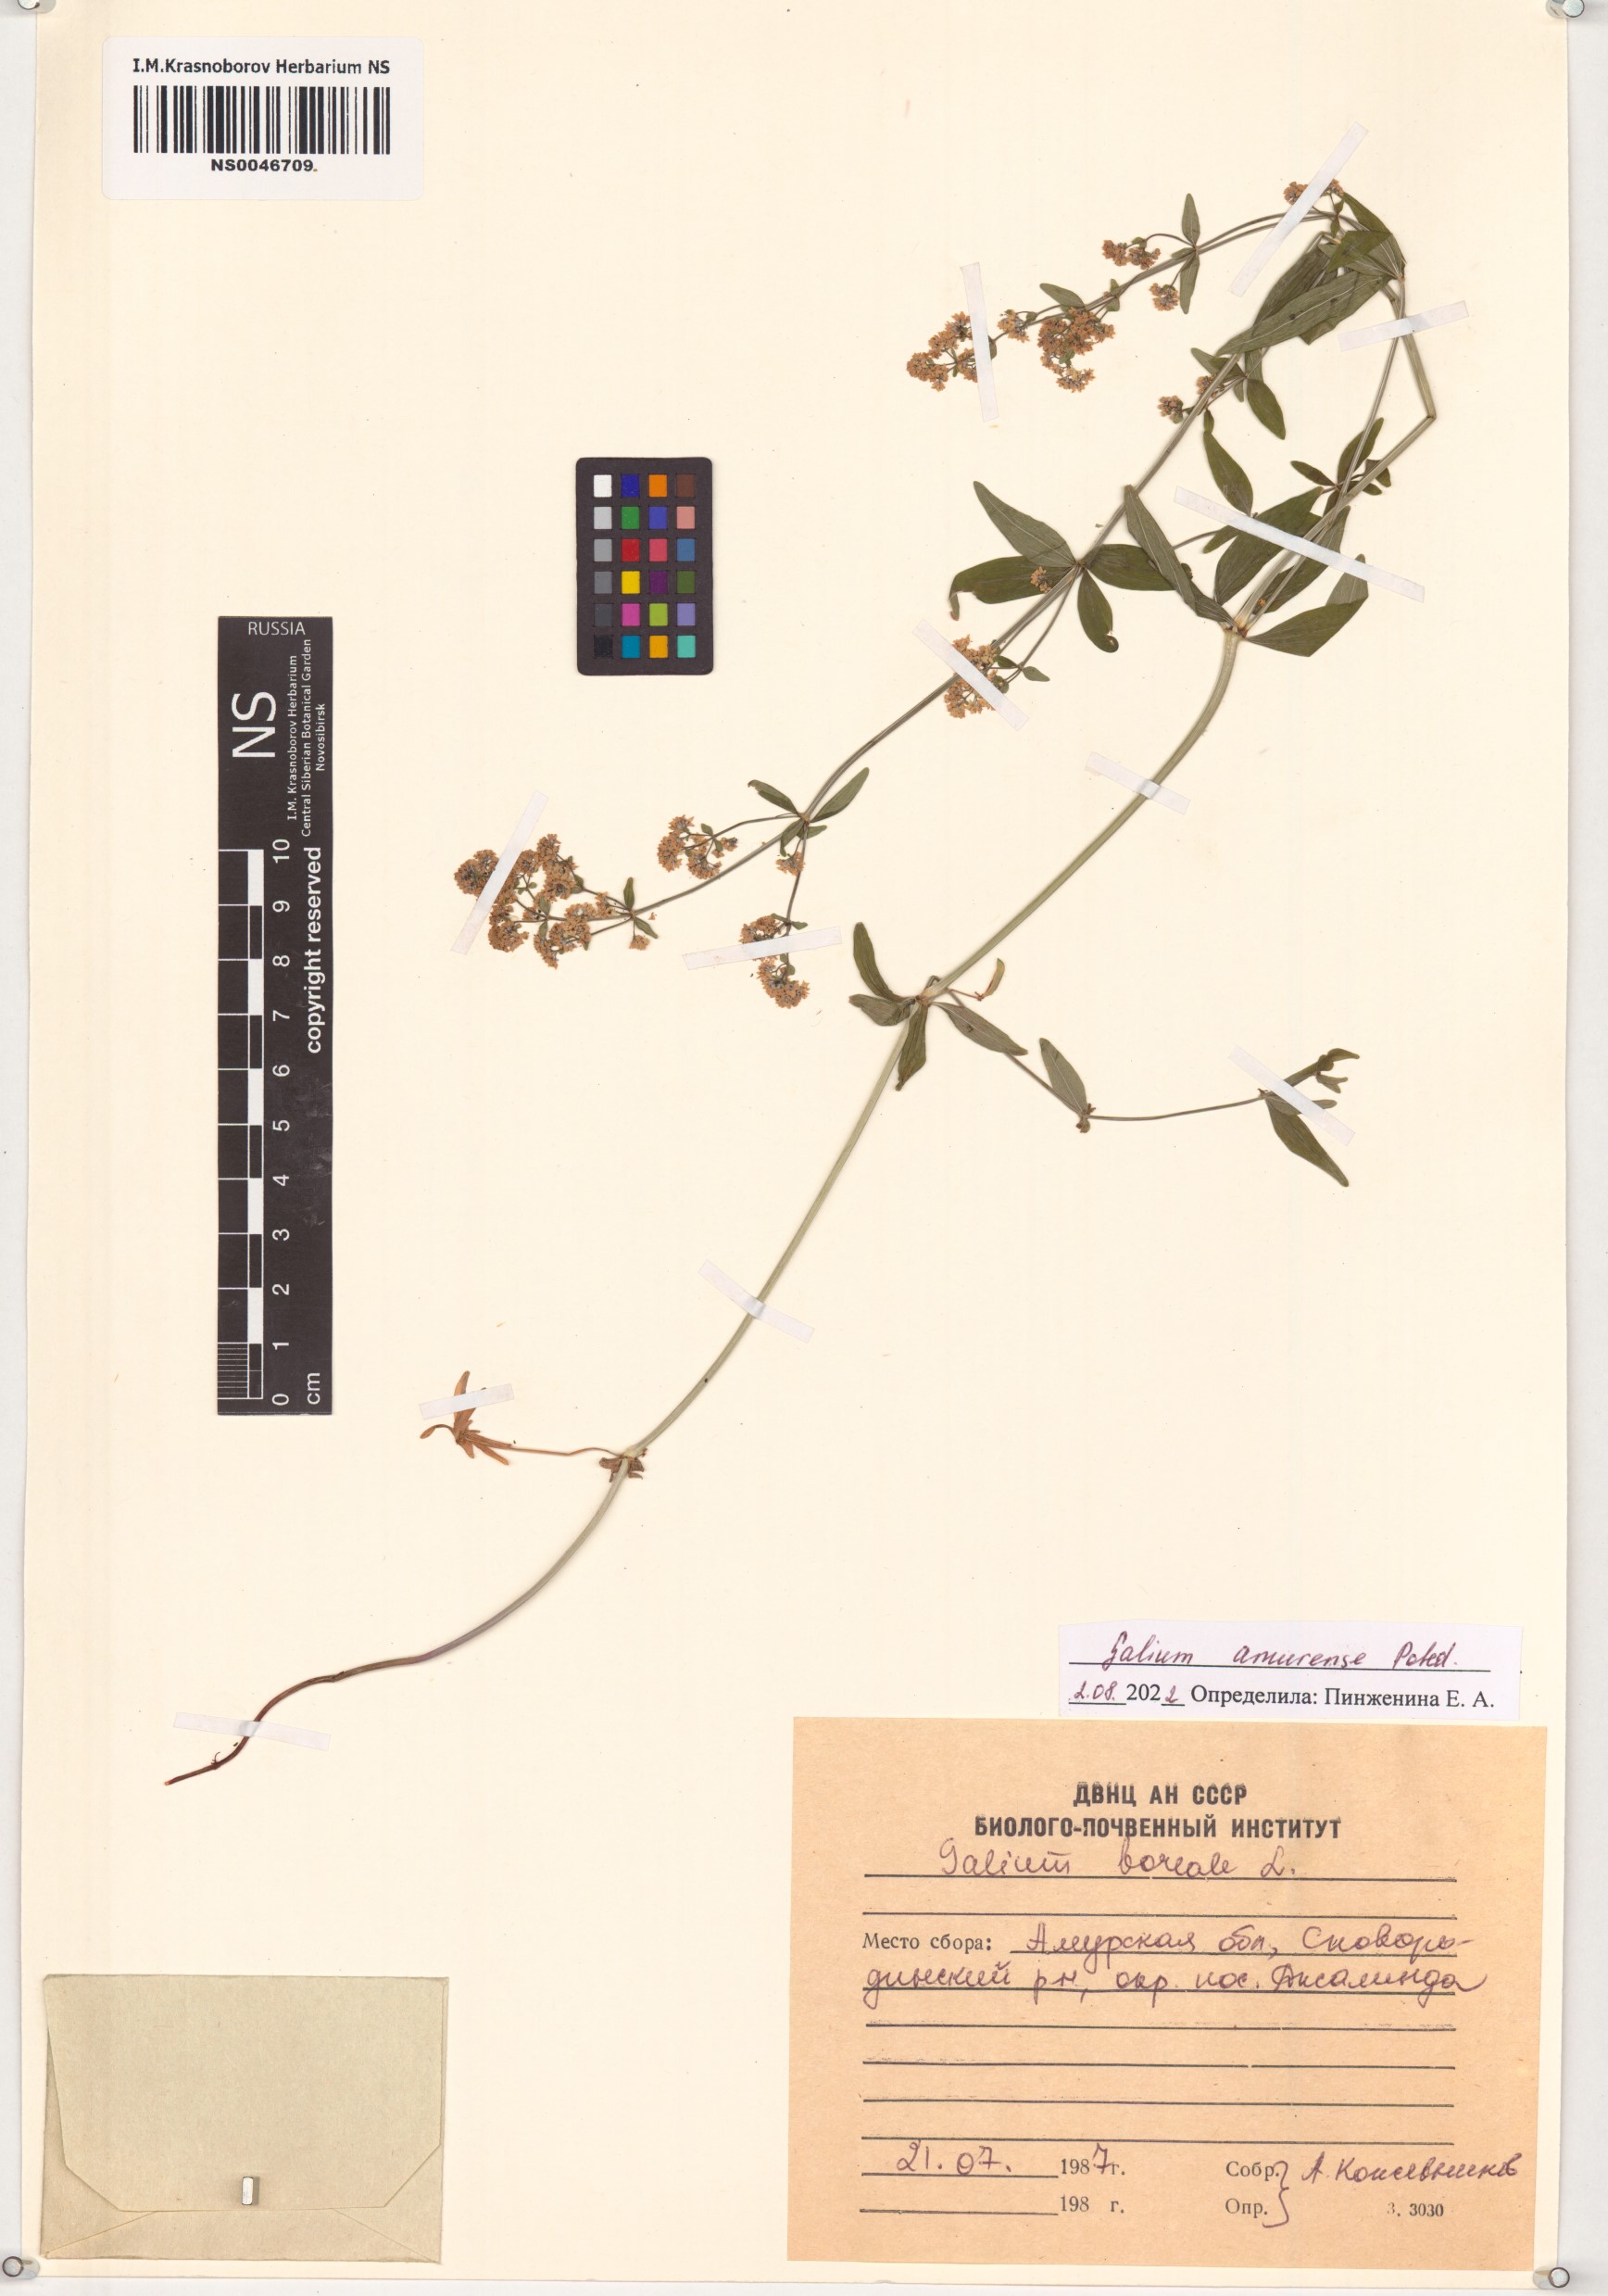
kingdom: Plantae
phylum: Tracheophyta
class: Magnoliopsida
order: Gentianales
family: Rubiaceae
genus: Galium
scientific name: Galium amurense
